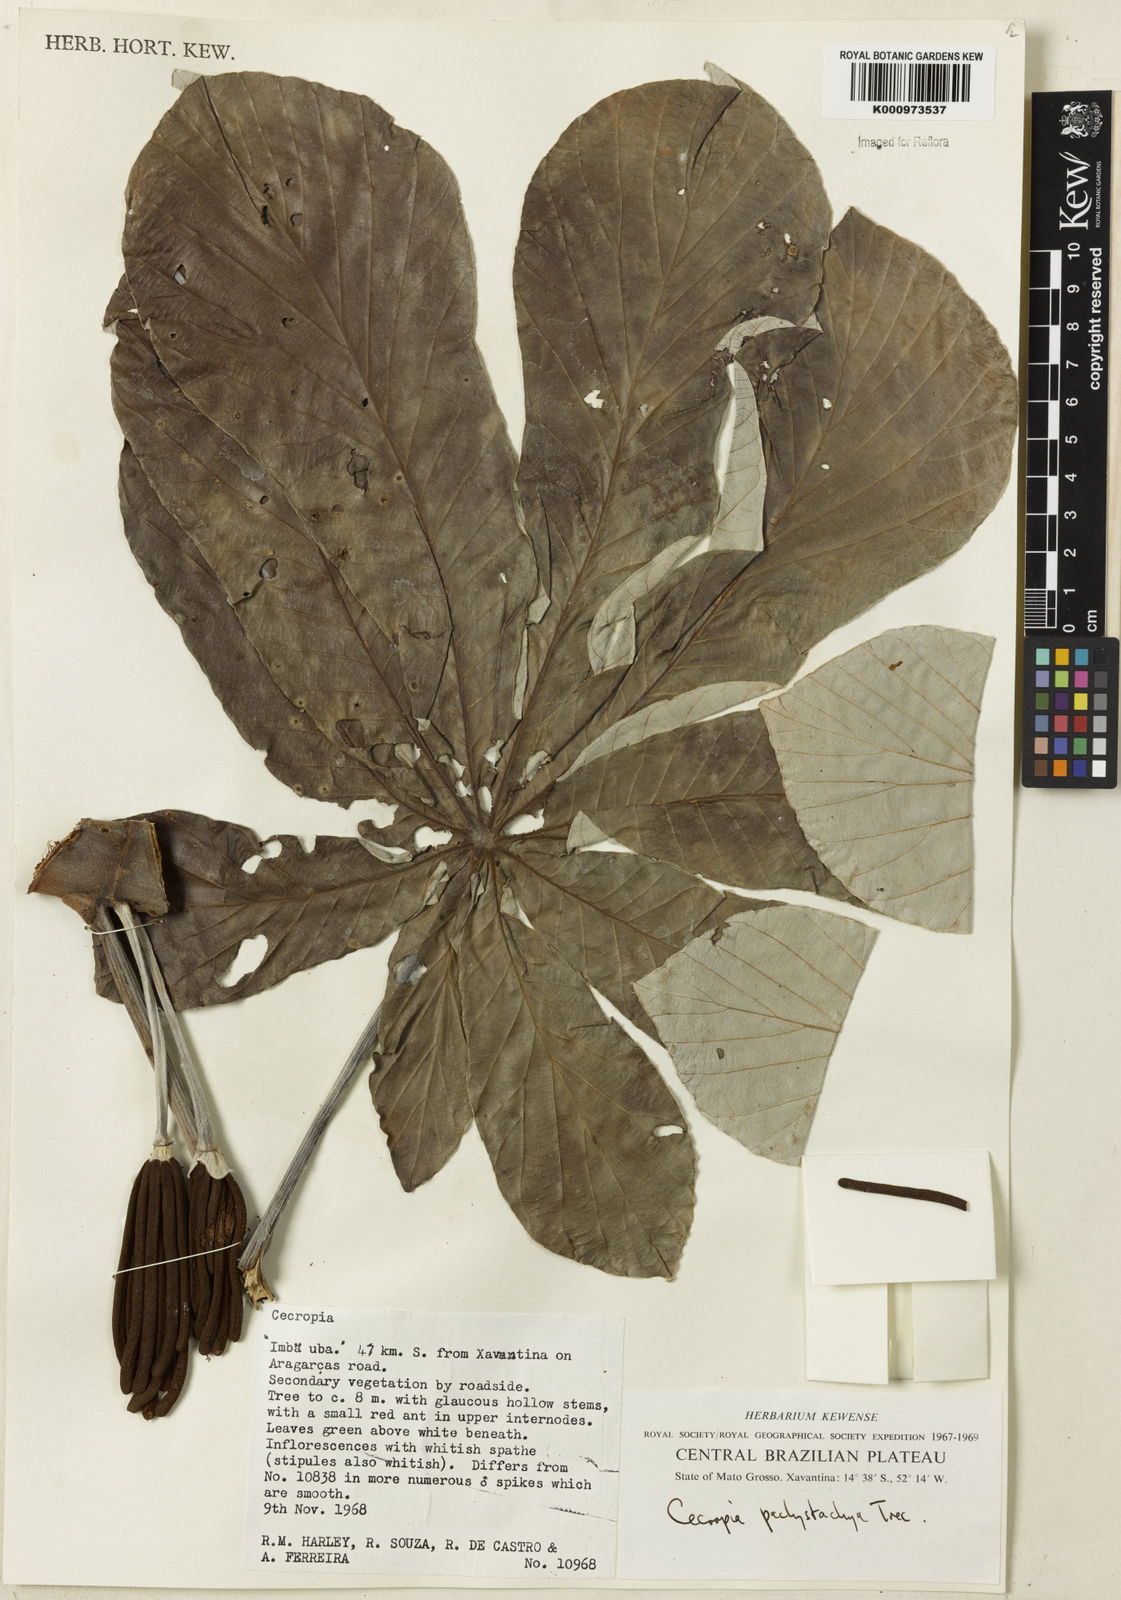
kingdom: Plantae
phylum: Tracheophyta
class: Magnoliopsida
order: Rosales
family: Urticaceae
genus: Cecropia
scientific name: Cecropia
